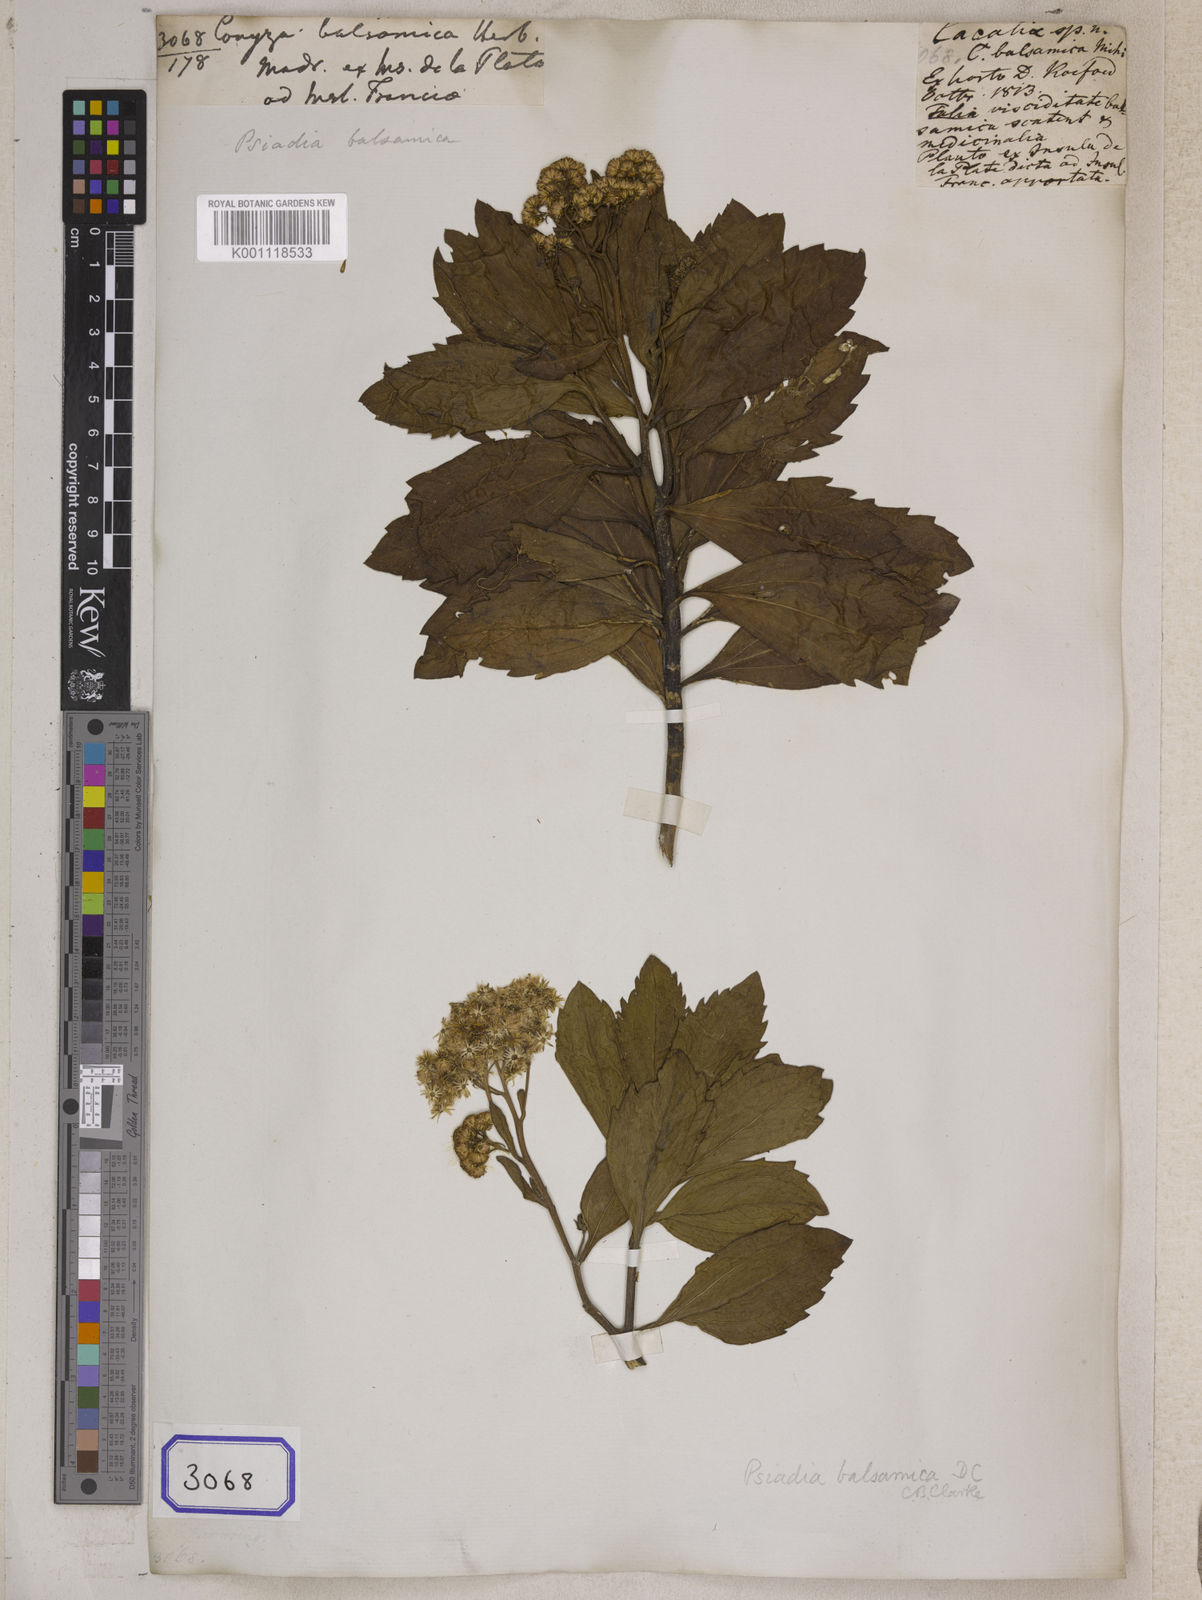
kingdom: Plantae
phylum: Tracheophyta
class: Magnoliopsida
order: Asterales
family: Asteraceae
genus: Psiadia
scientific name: Psiadia arguta
